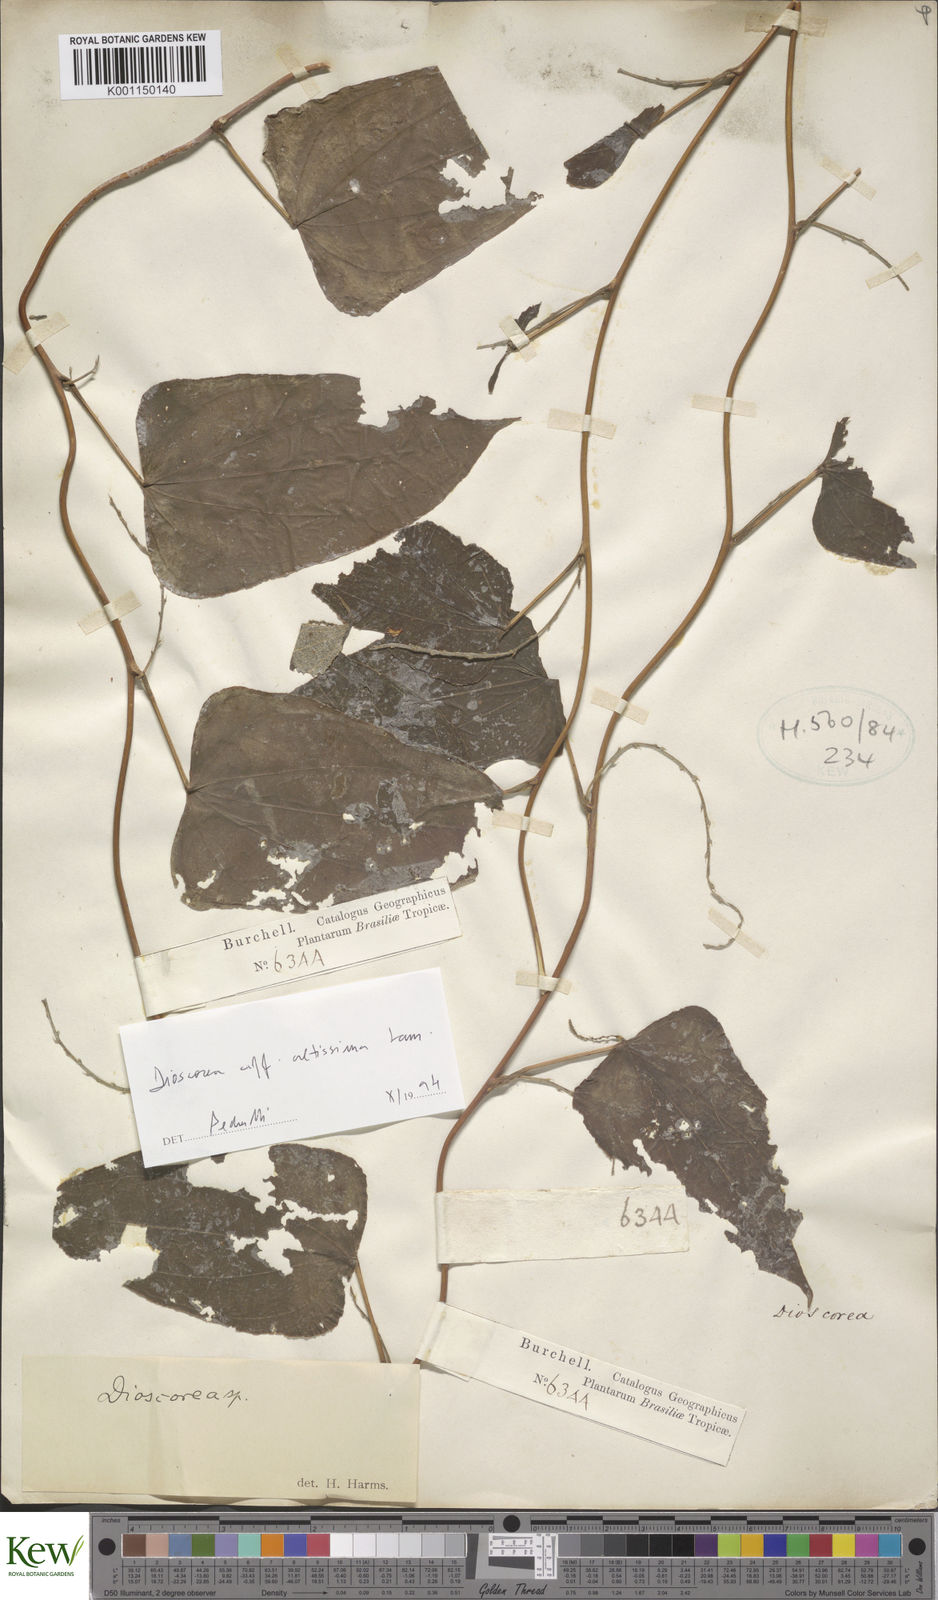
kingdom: Plantae
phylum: Tracheophyta
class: Liliopsida
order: Dioscoreales
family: Dioscoreaceae
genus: Dioscorea
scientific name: Dioscorea cayenensis
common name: Attoto yam
